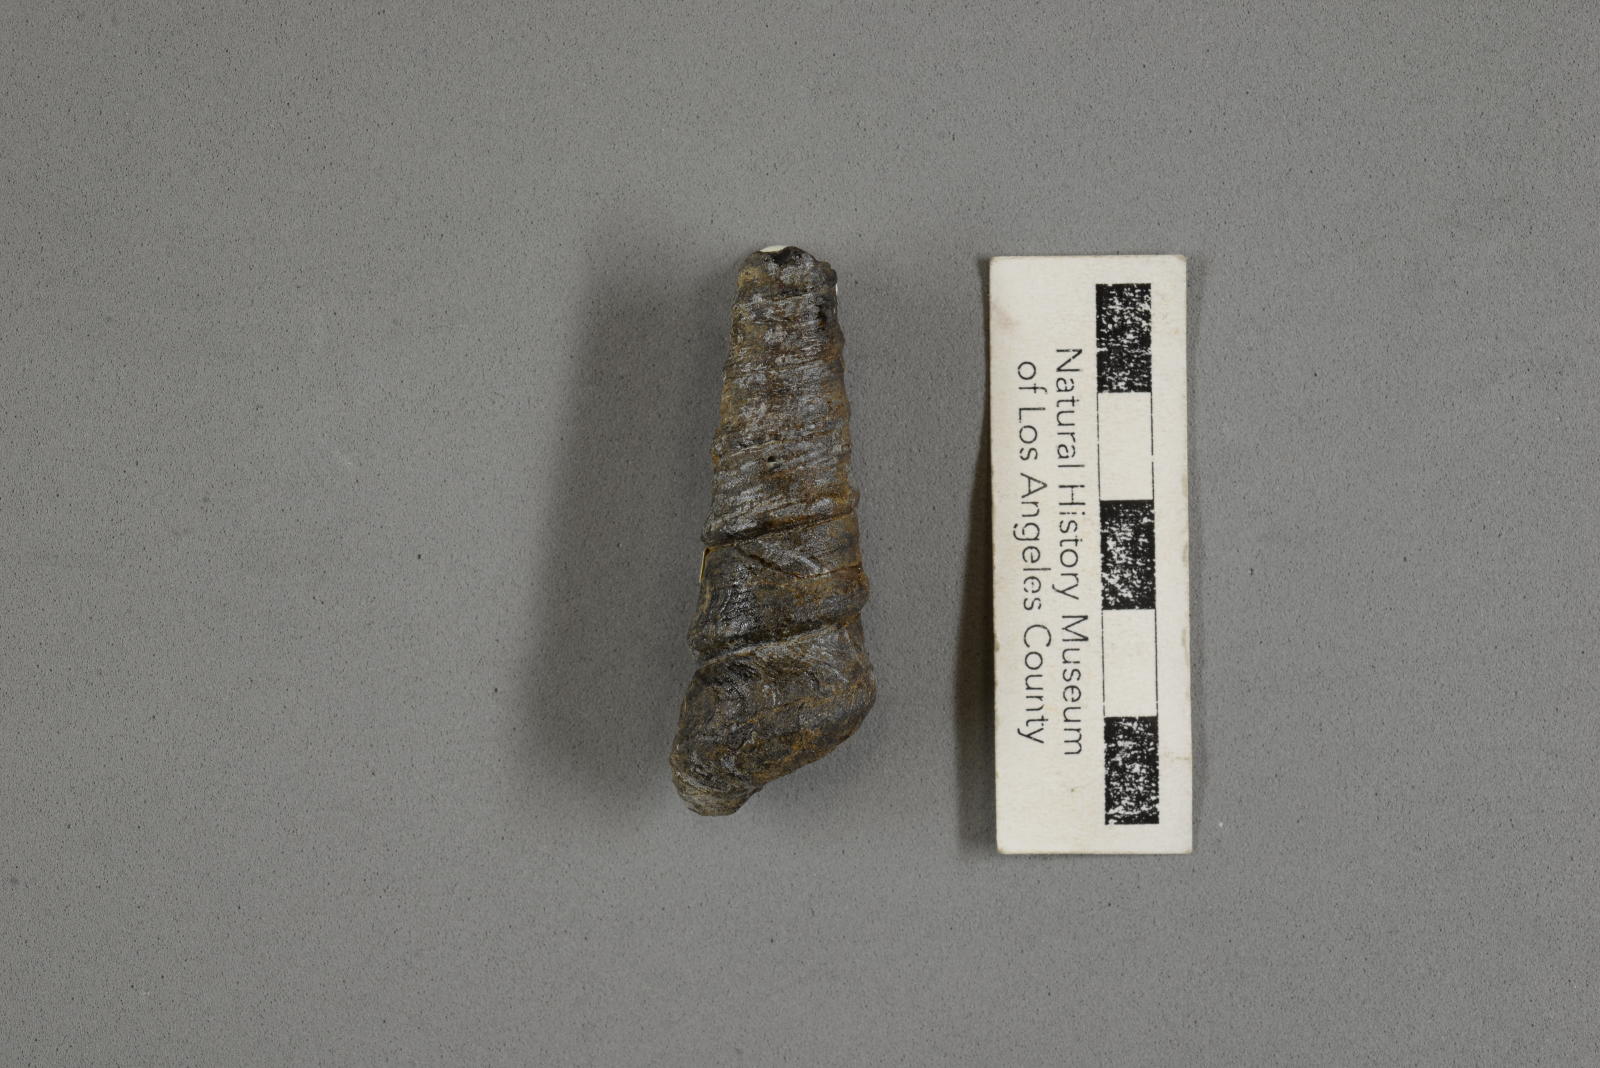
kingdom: Animalia
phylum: Mollusca
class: Gastropoda
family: Turritellidae
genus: Turritella
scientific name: Turritella peninsularis
